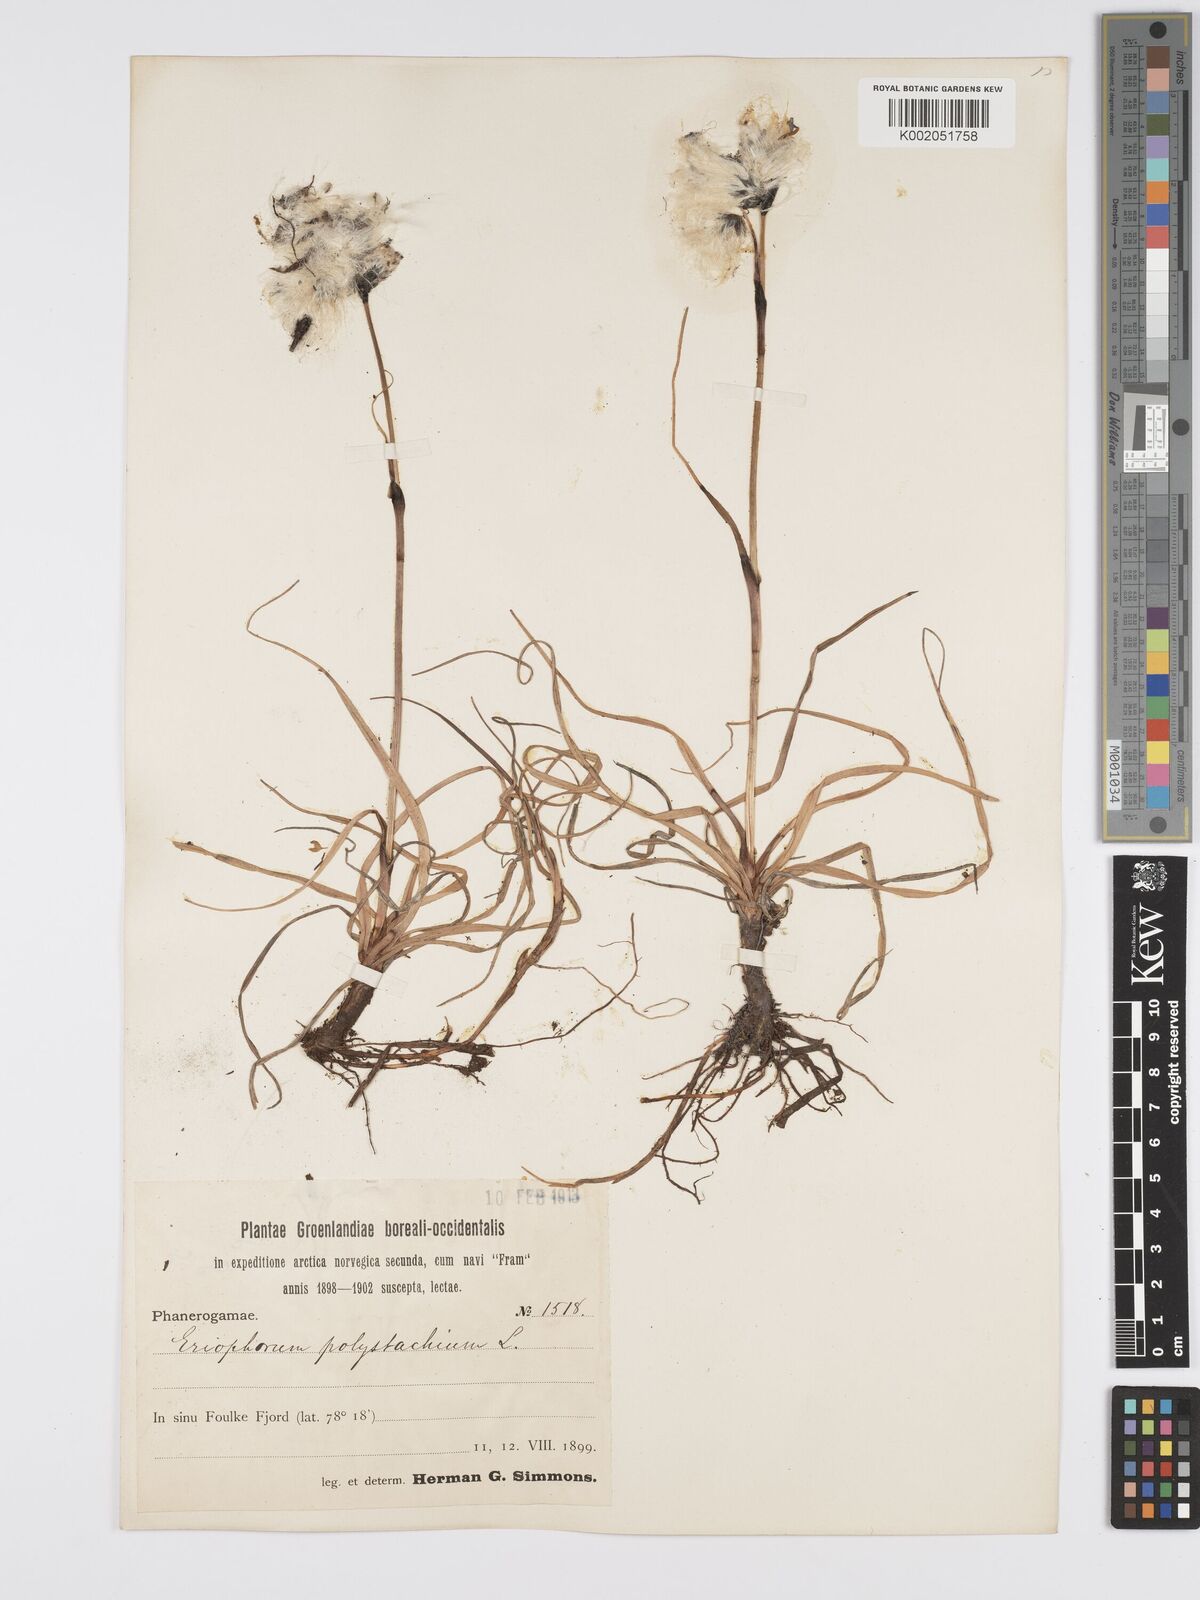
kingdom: Plantae
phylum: Tracheophyta
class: Liliopsida
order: Poales
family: Cyperaceae
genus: Eriophorum
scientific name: Eriophorum angustifolium
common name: Common cottongrass
